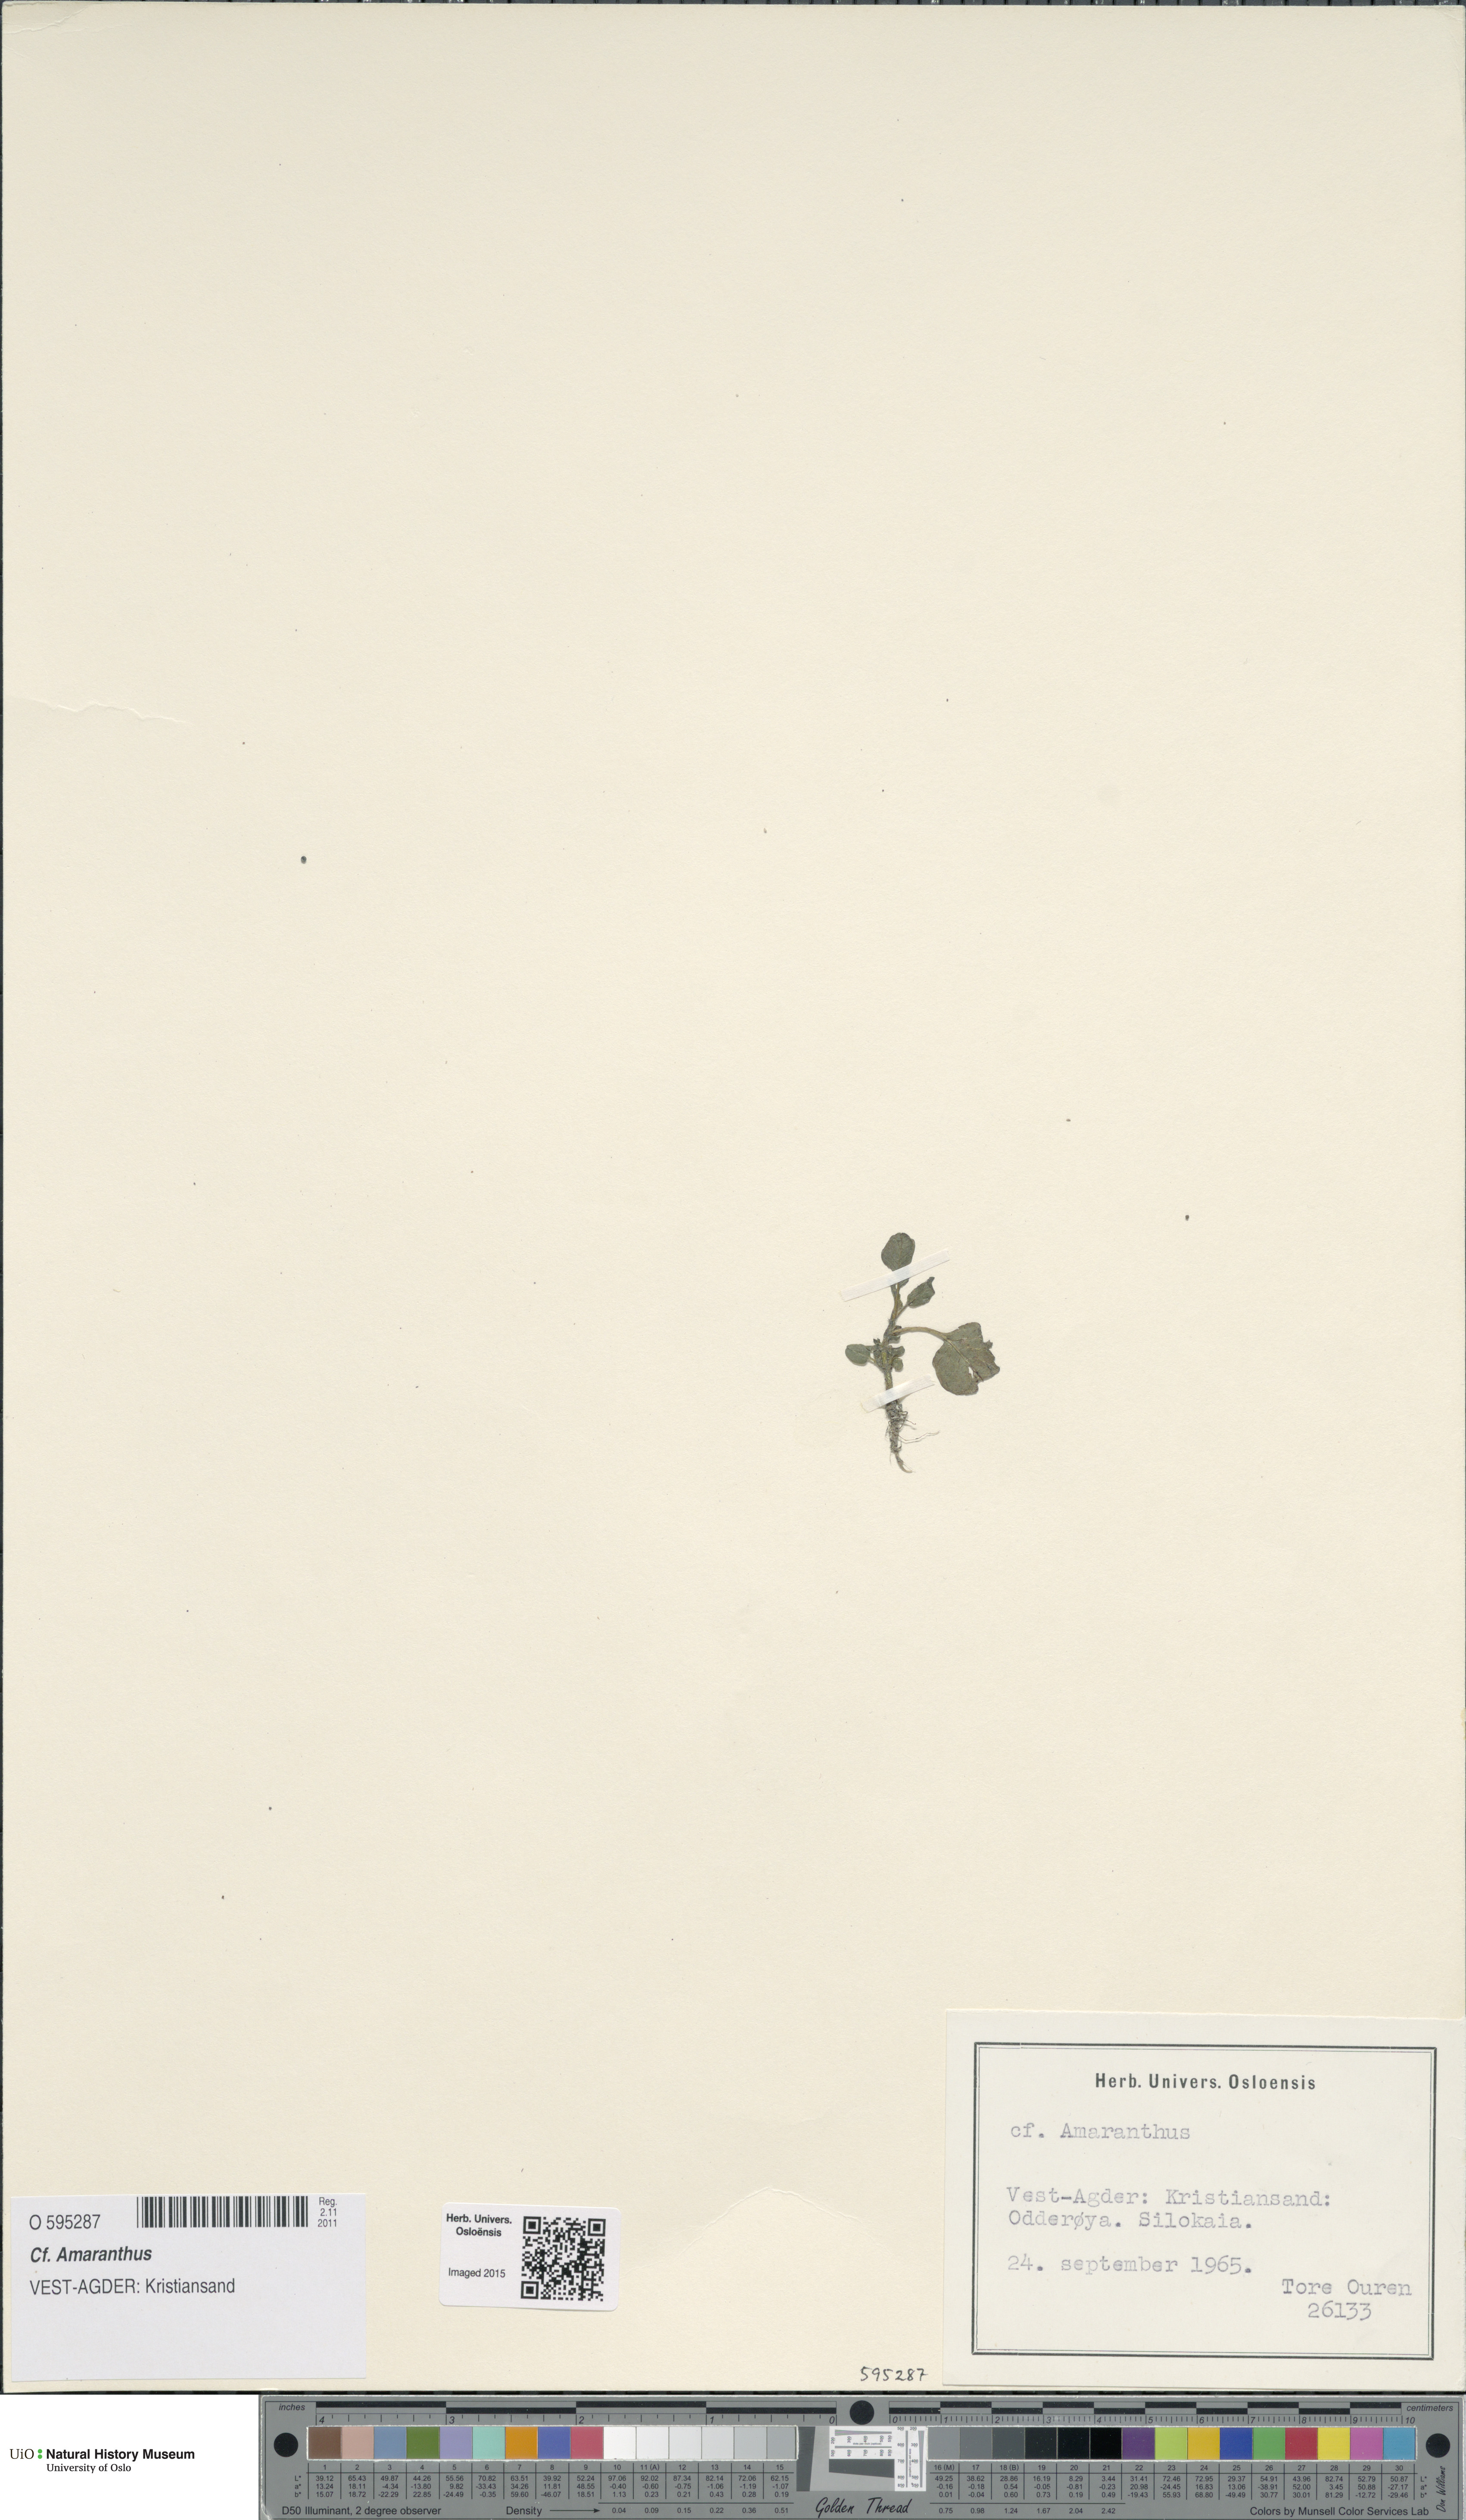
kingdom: Plantae
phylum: Tracheophyta
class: Magnoliopsida
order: Caryophyllales
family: Amaranthaceae
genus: Amaranthus
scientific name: Amaranthus
